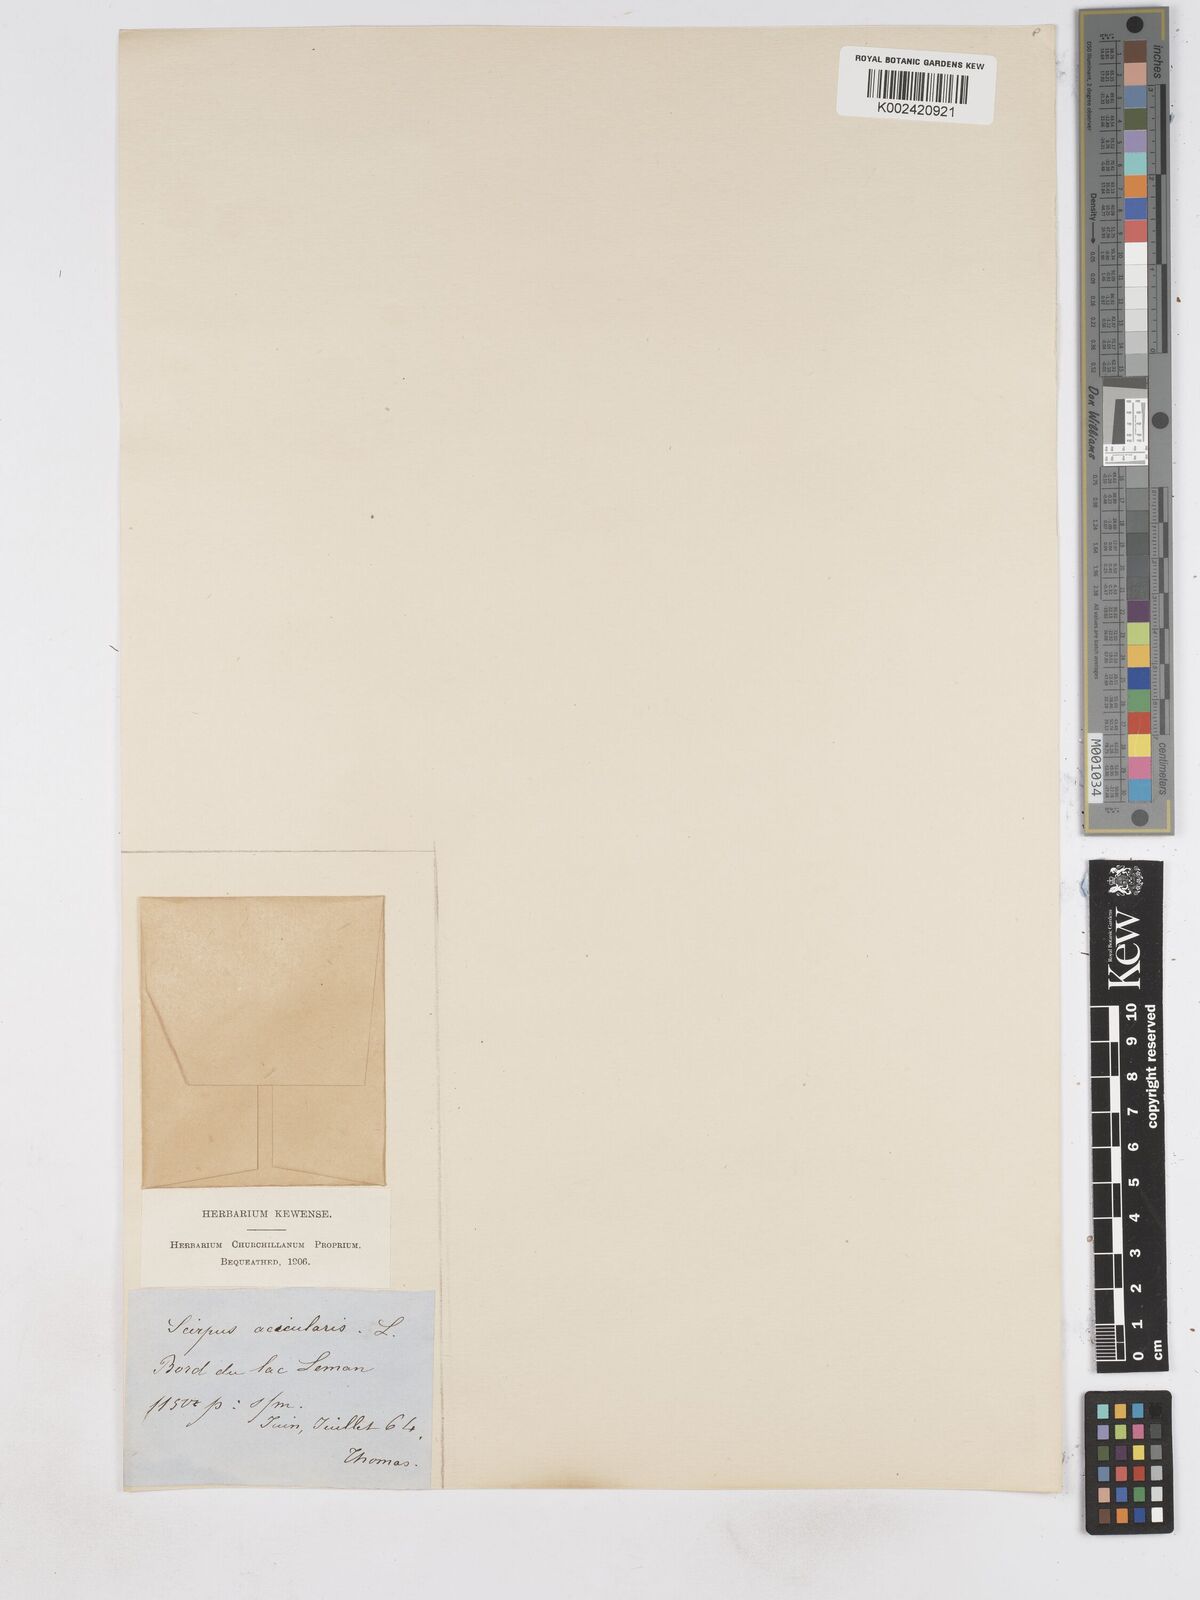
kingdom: Plantae
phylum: Tracheophyta
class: Liliopsida
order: Poales
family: Cyperaceae
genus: Eleocharis
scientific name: Eleocharis acicularis
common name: Needle spike-rush
